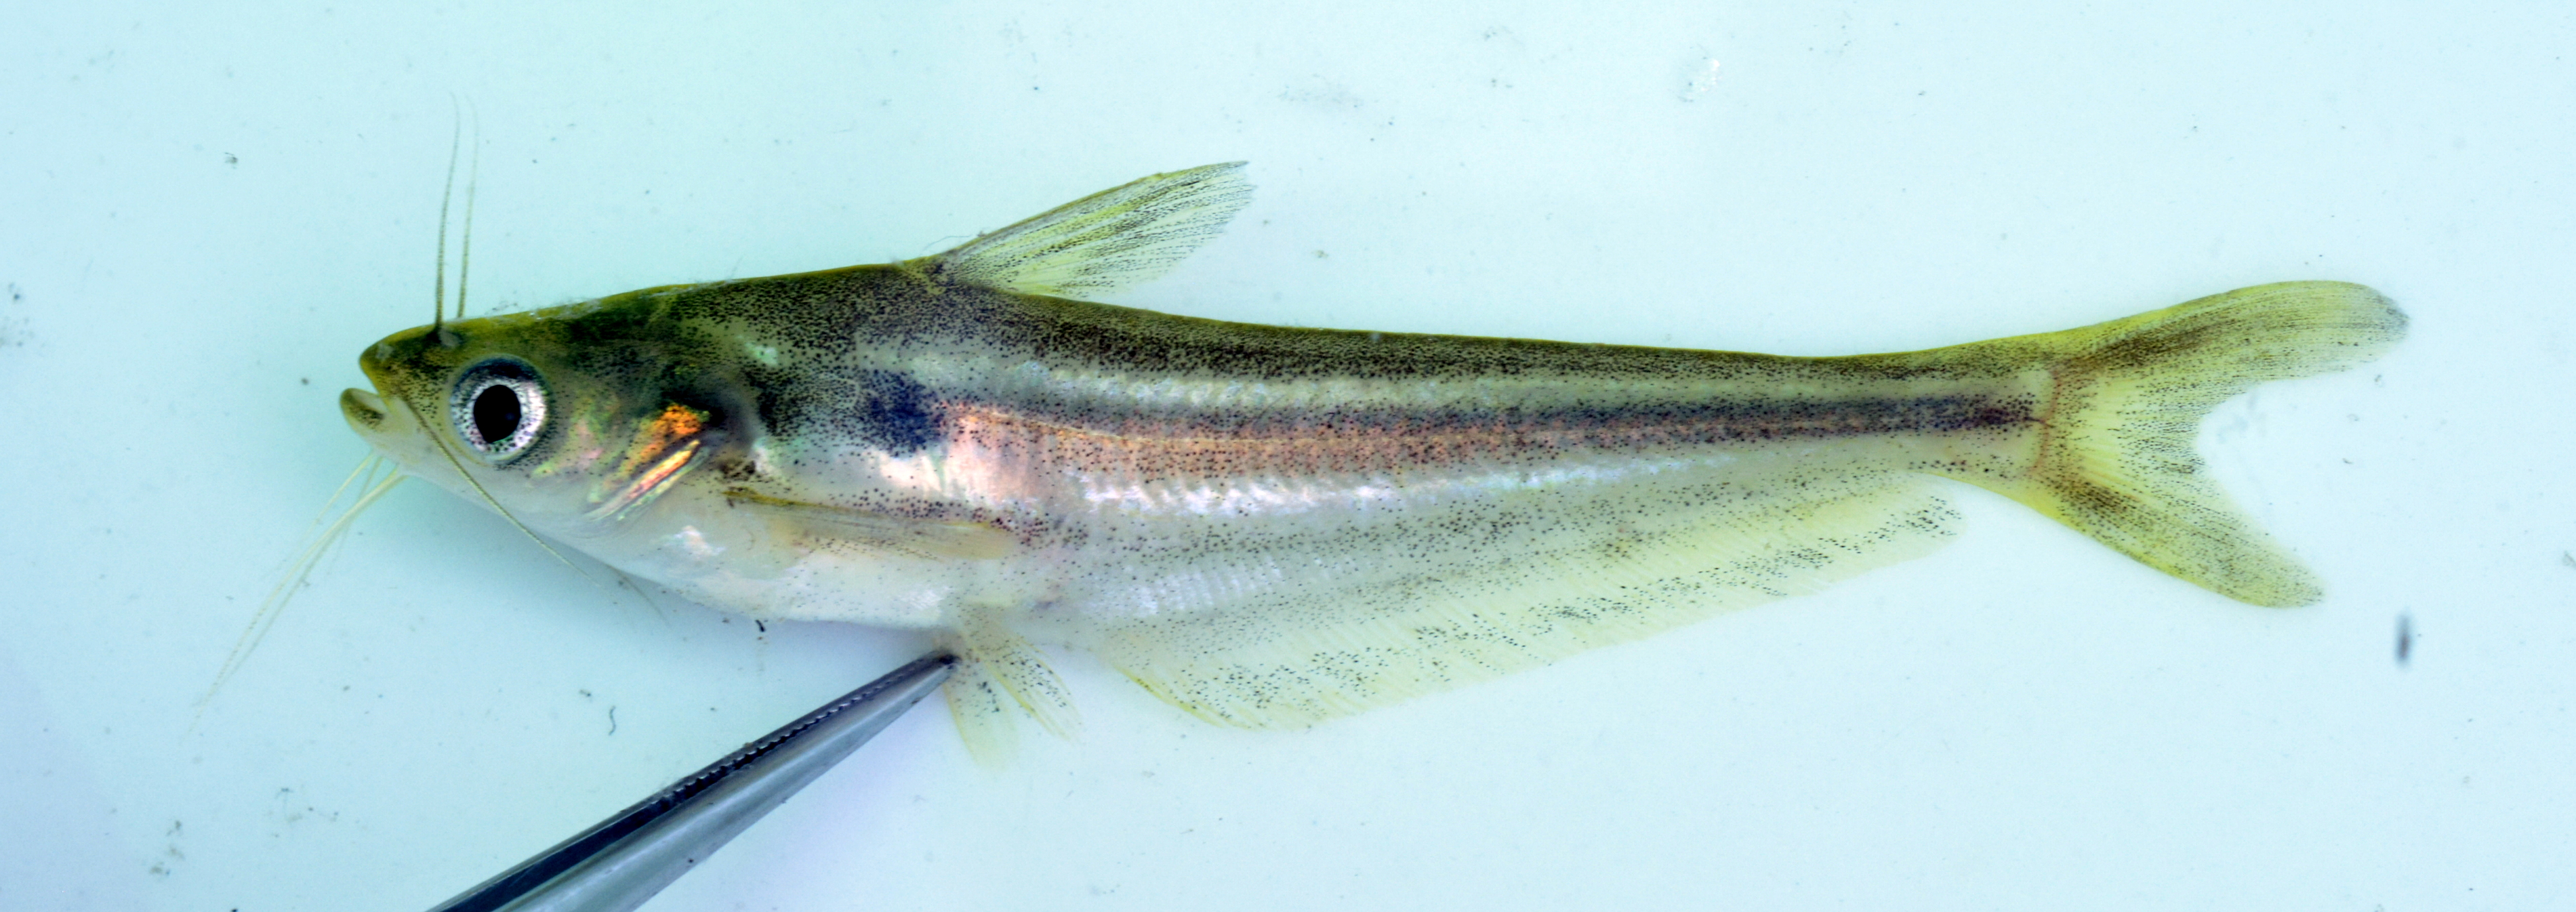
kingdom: Animalia
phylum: Chordata
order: Siluriformes
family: Schilbeidae
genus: Schilbe
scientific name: Schilbe intermedius
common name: Silver catfish
